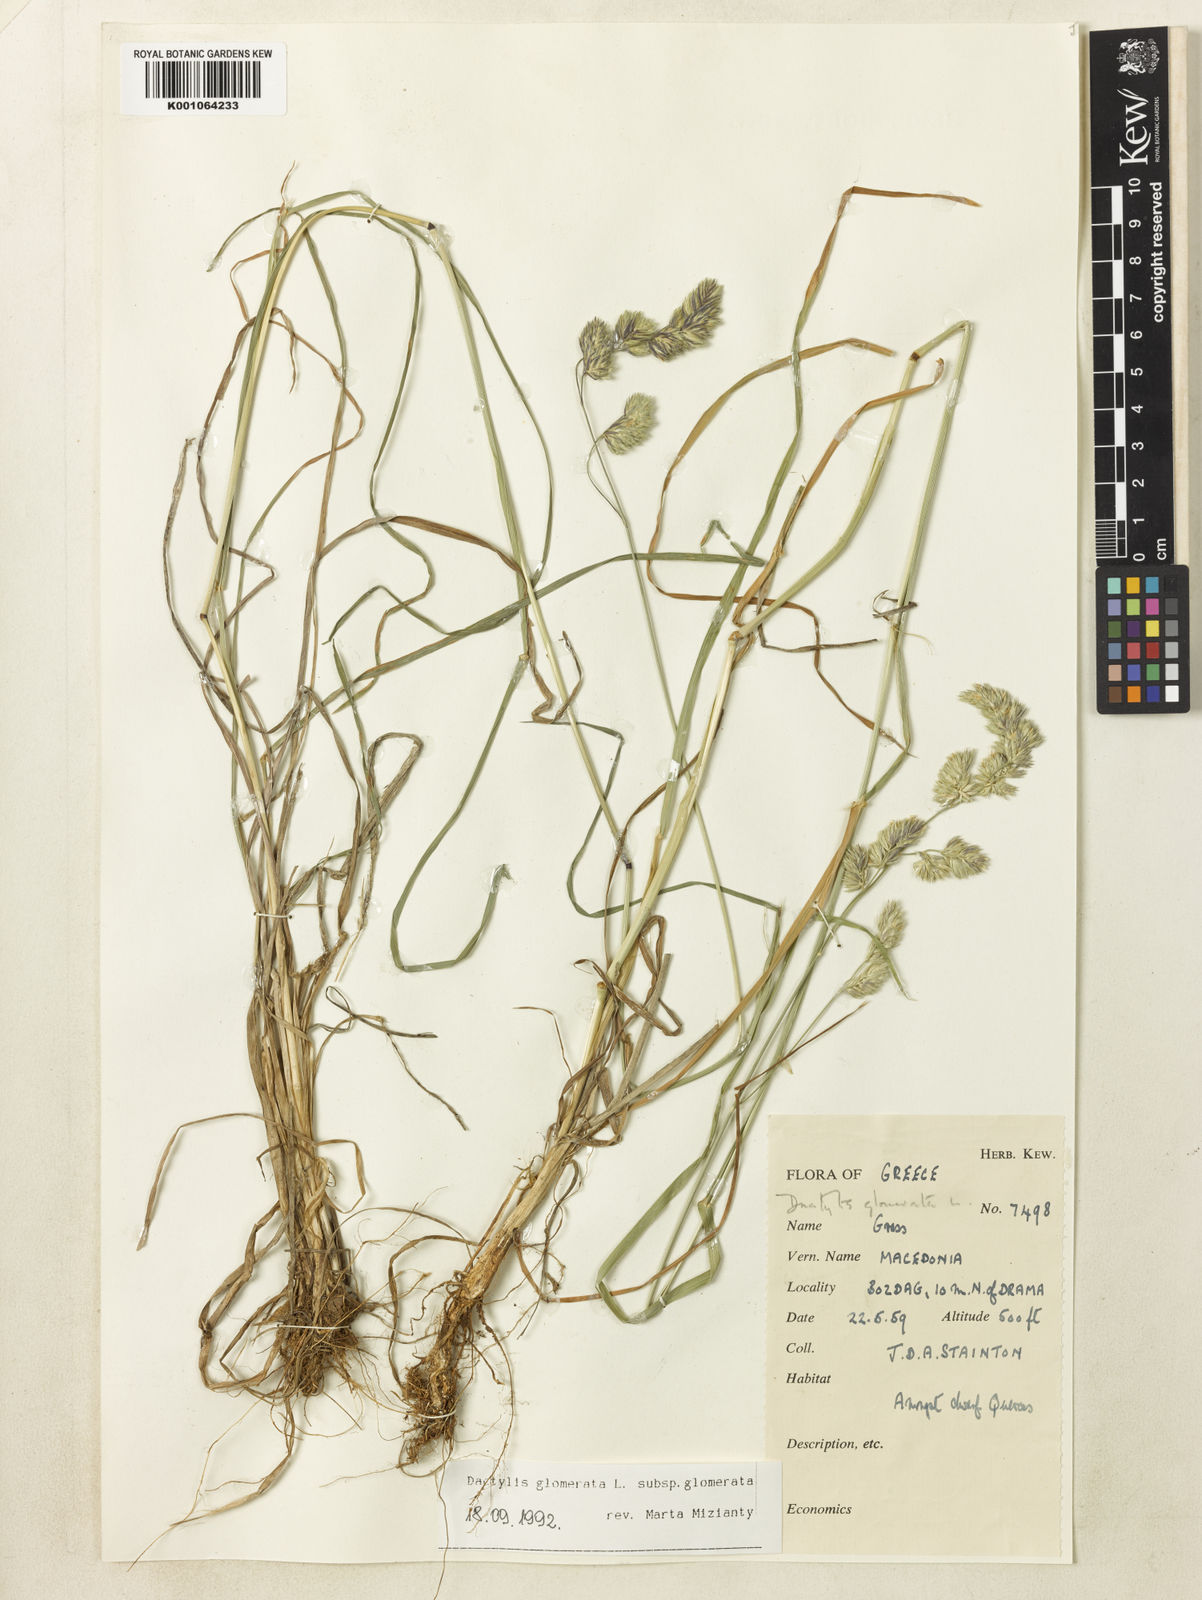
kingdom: Plantae
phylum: Tracheophyta
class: Liliopsida
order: Poales
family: Poaceae
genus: Dactylis
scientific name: Dactylis glomerata
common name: Orchardgrass
